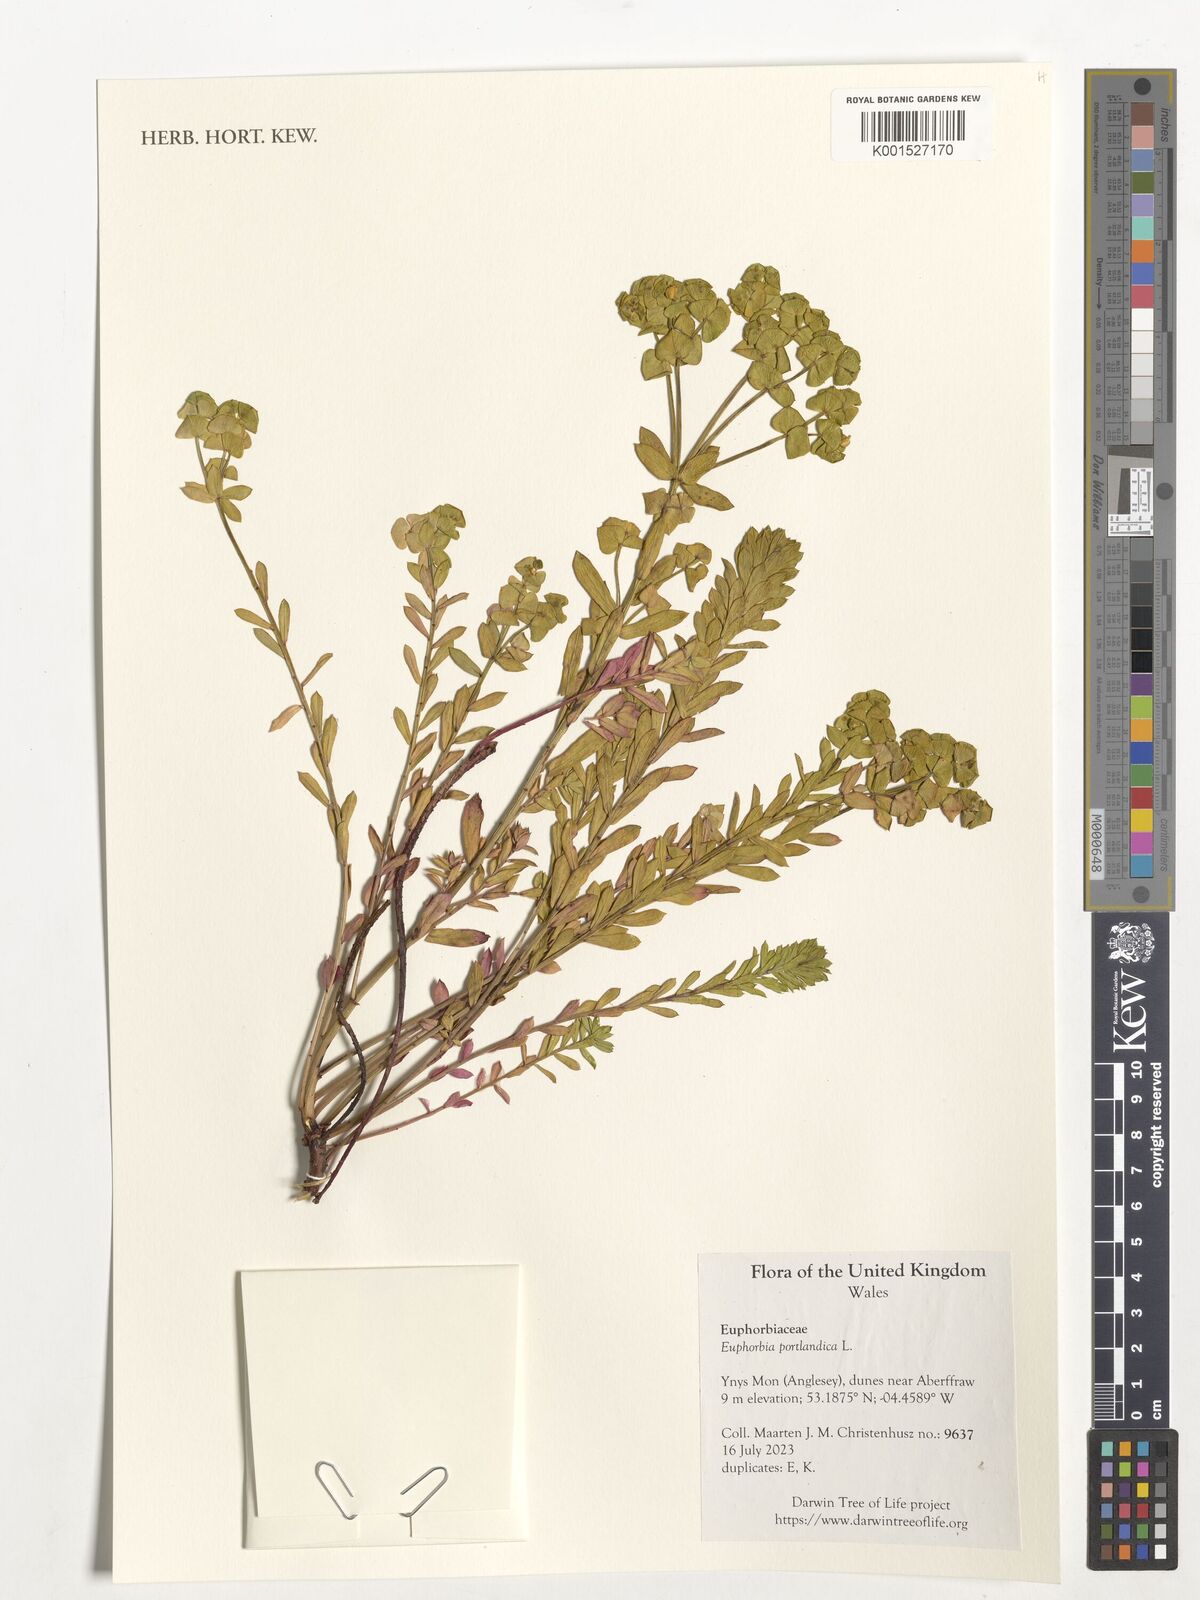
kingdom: Plantae
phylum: Tracheophyta
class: Magnoliopsida
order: Malpighiales
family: Euphorbiaceae
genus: Euphorbia
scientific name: Euphorbia portlandica
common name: Portland spurge
